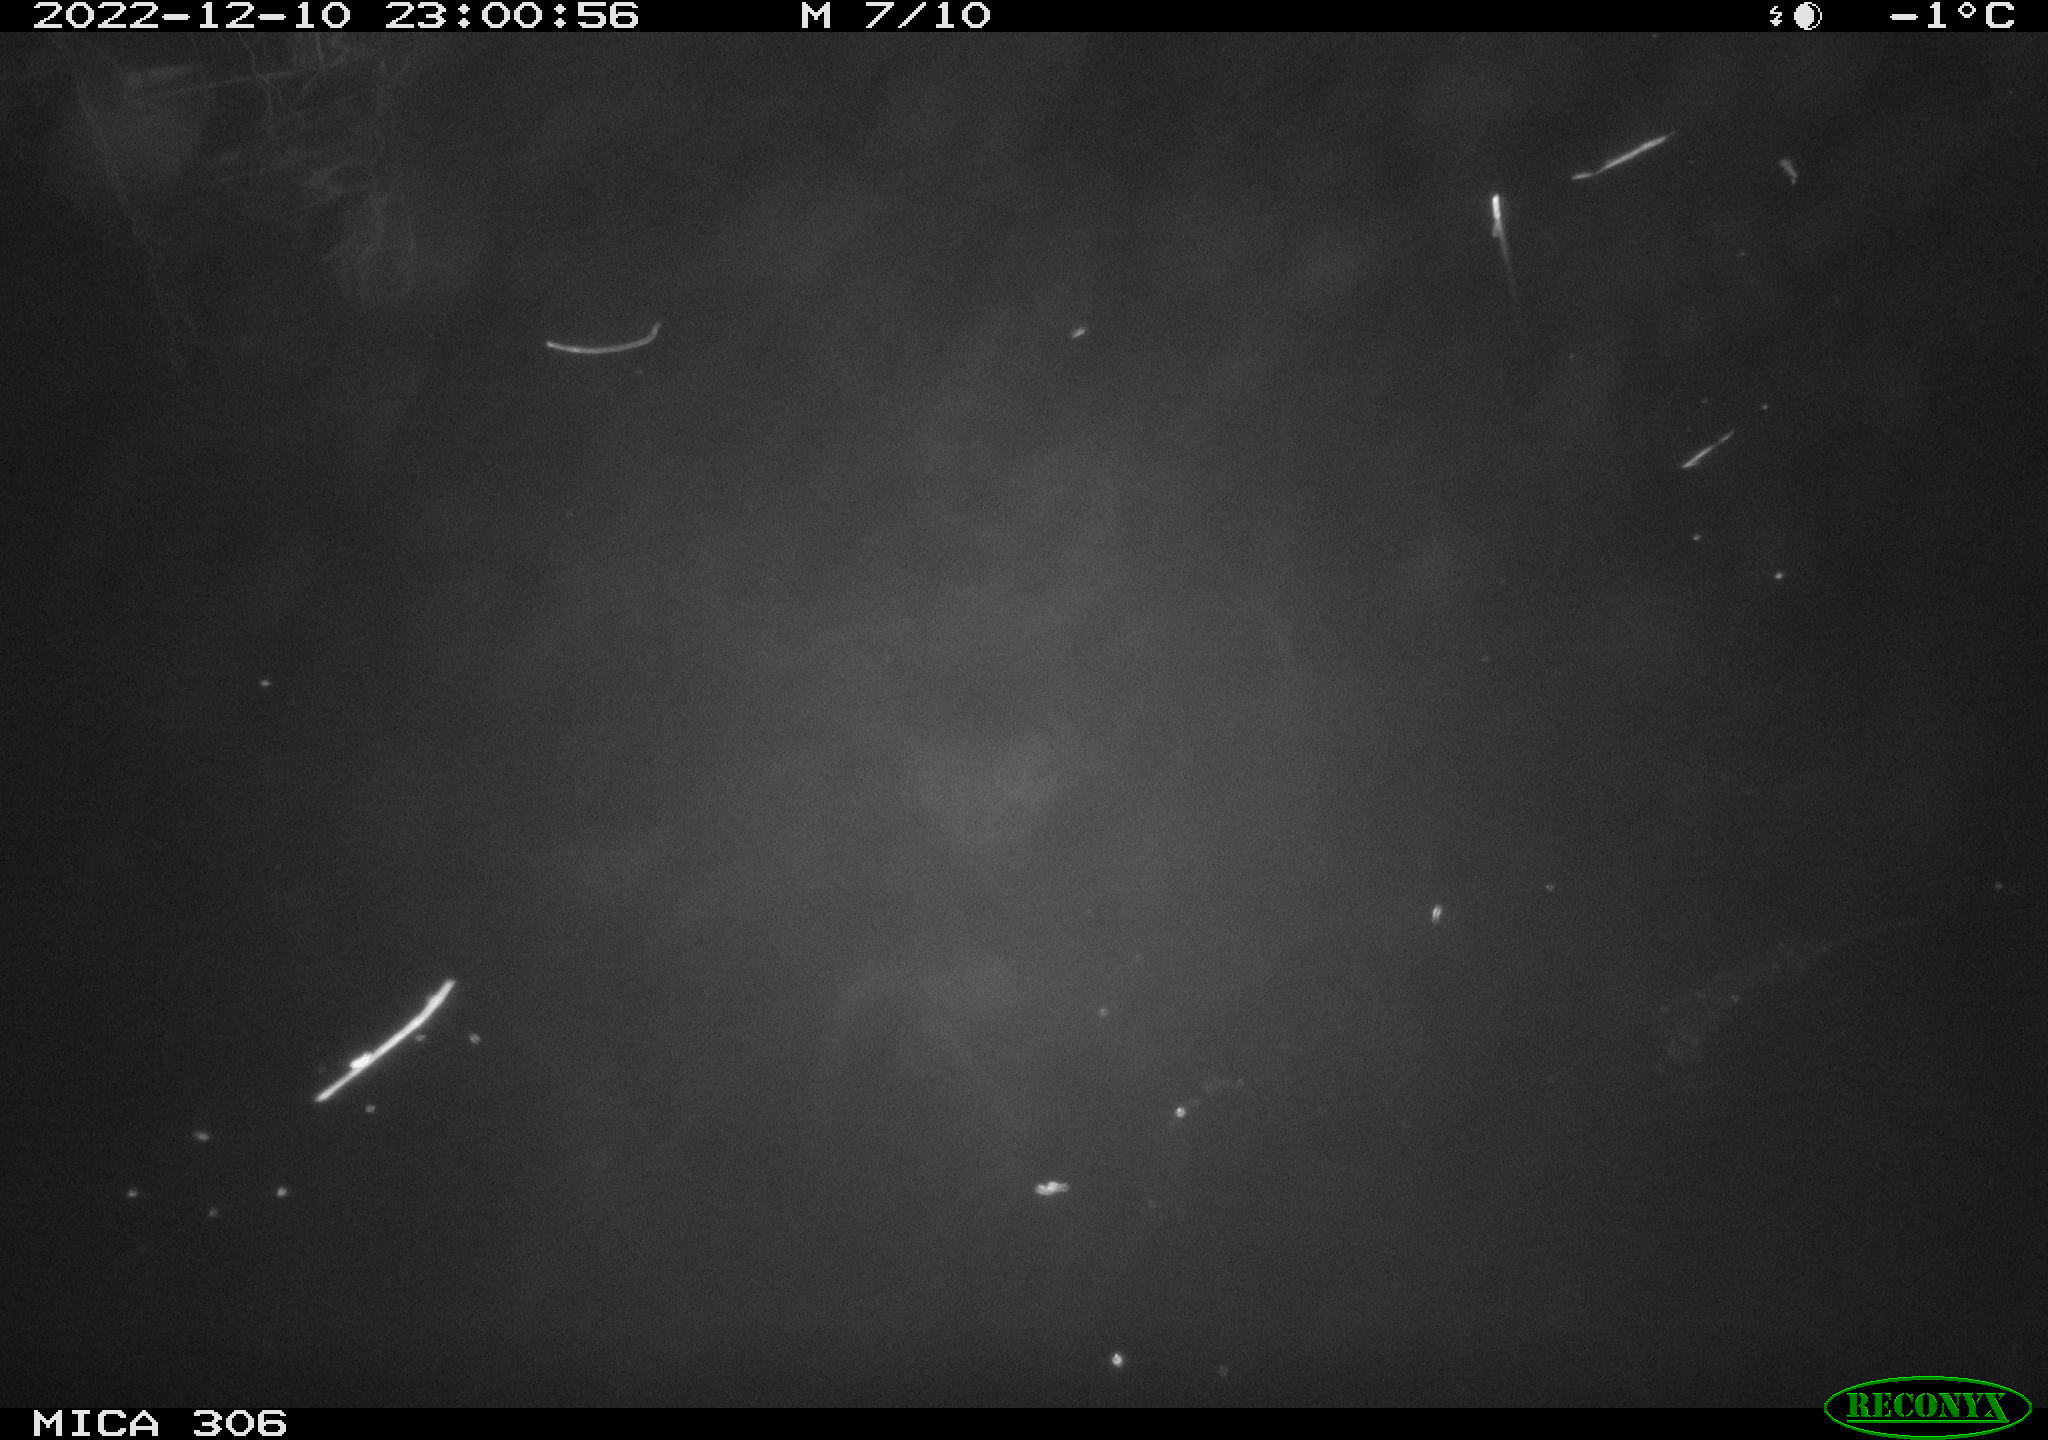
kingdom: Animalia
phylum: Chordata
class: Mammalia
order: Rodentia
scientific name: Rodentia
